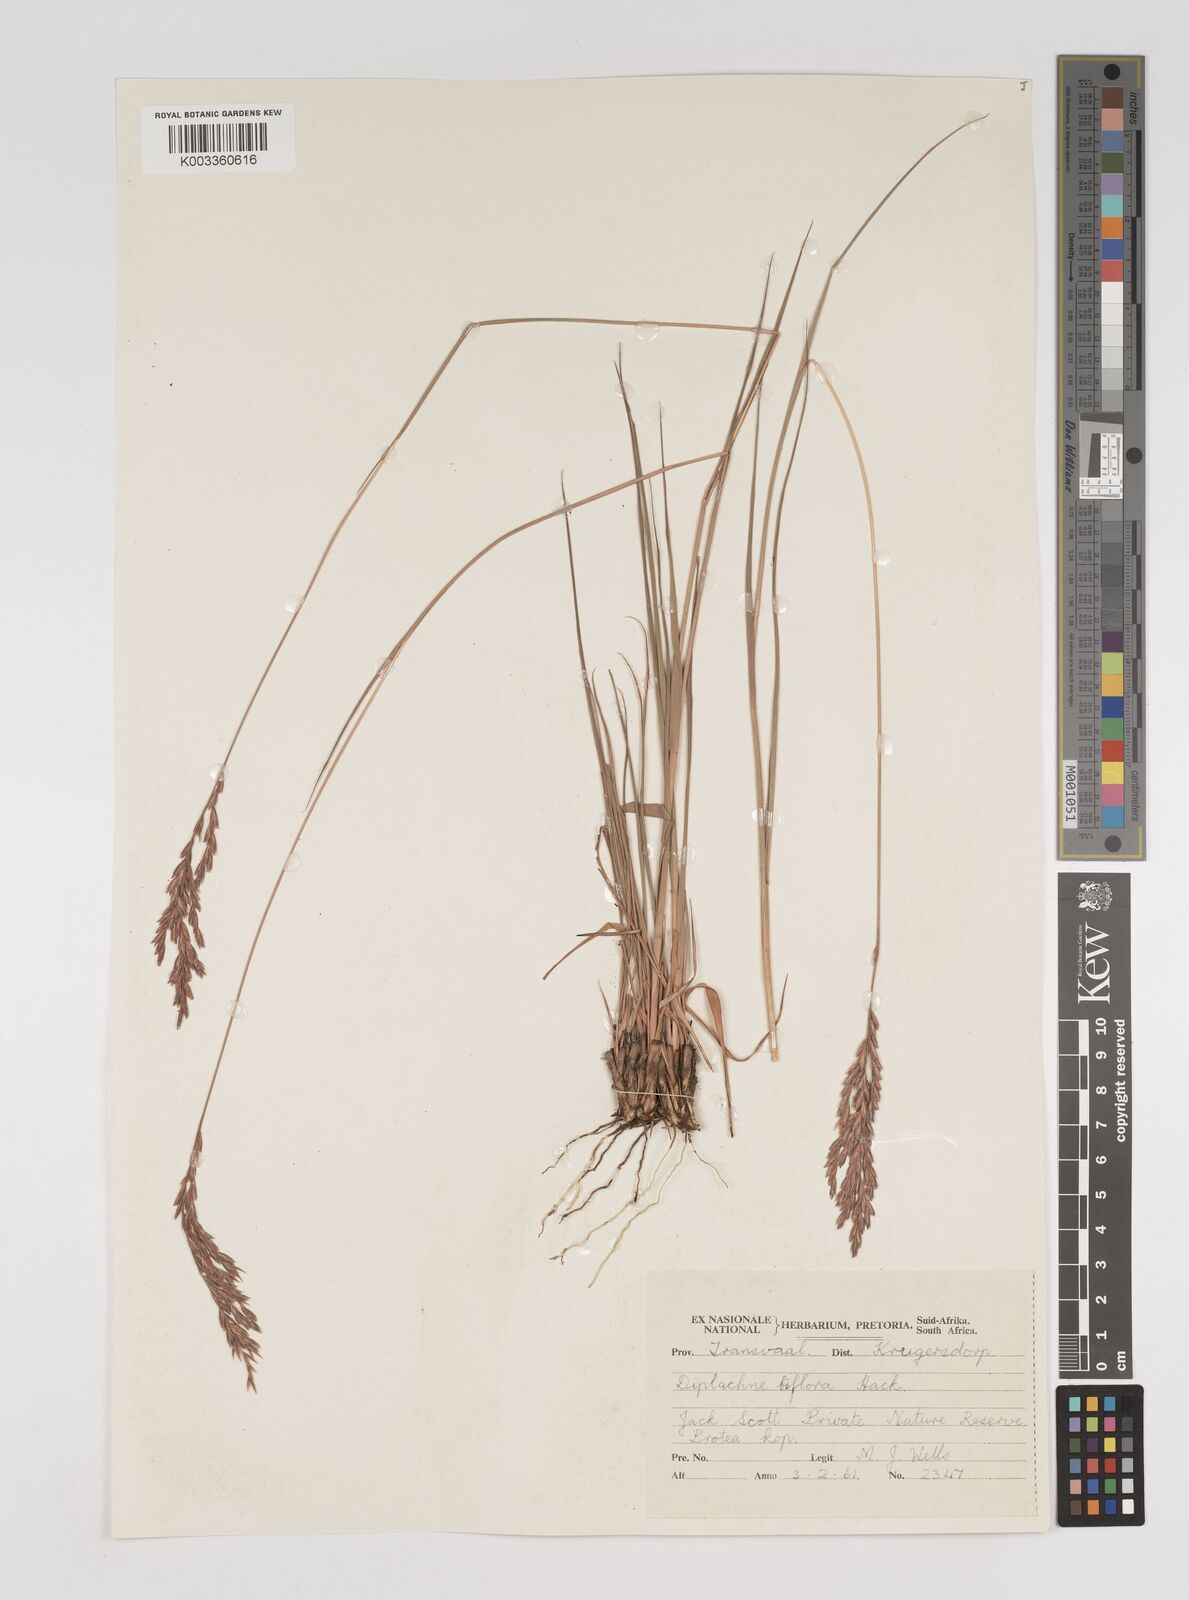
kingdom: Plantae
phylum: Tracheophyta
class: Liliopsida
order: Poales
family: Poaceae
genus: Bewsia
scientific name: Bewsia biflora
